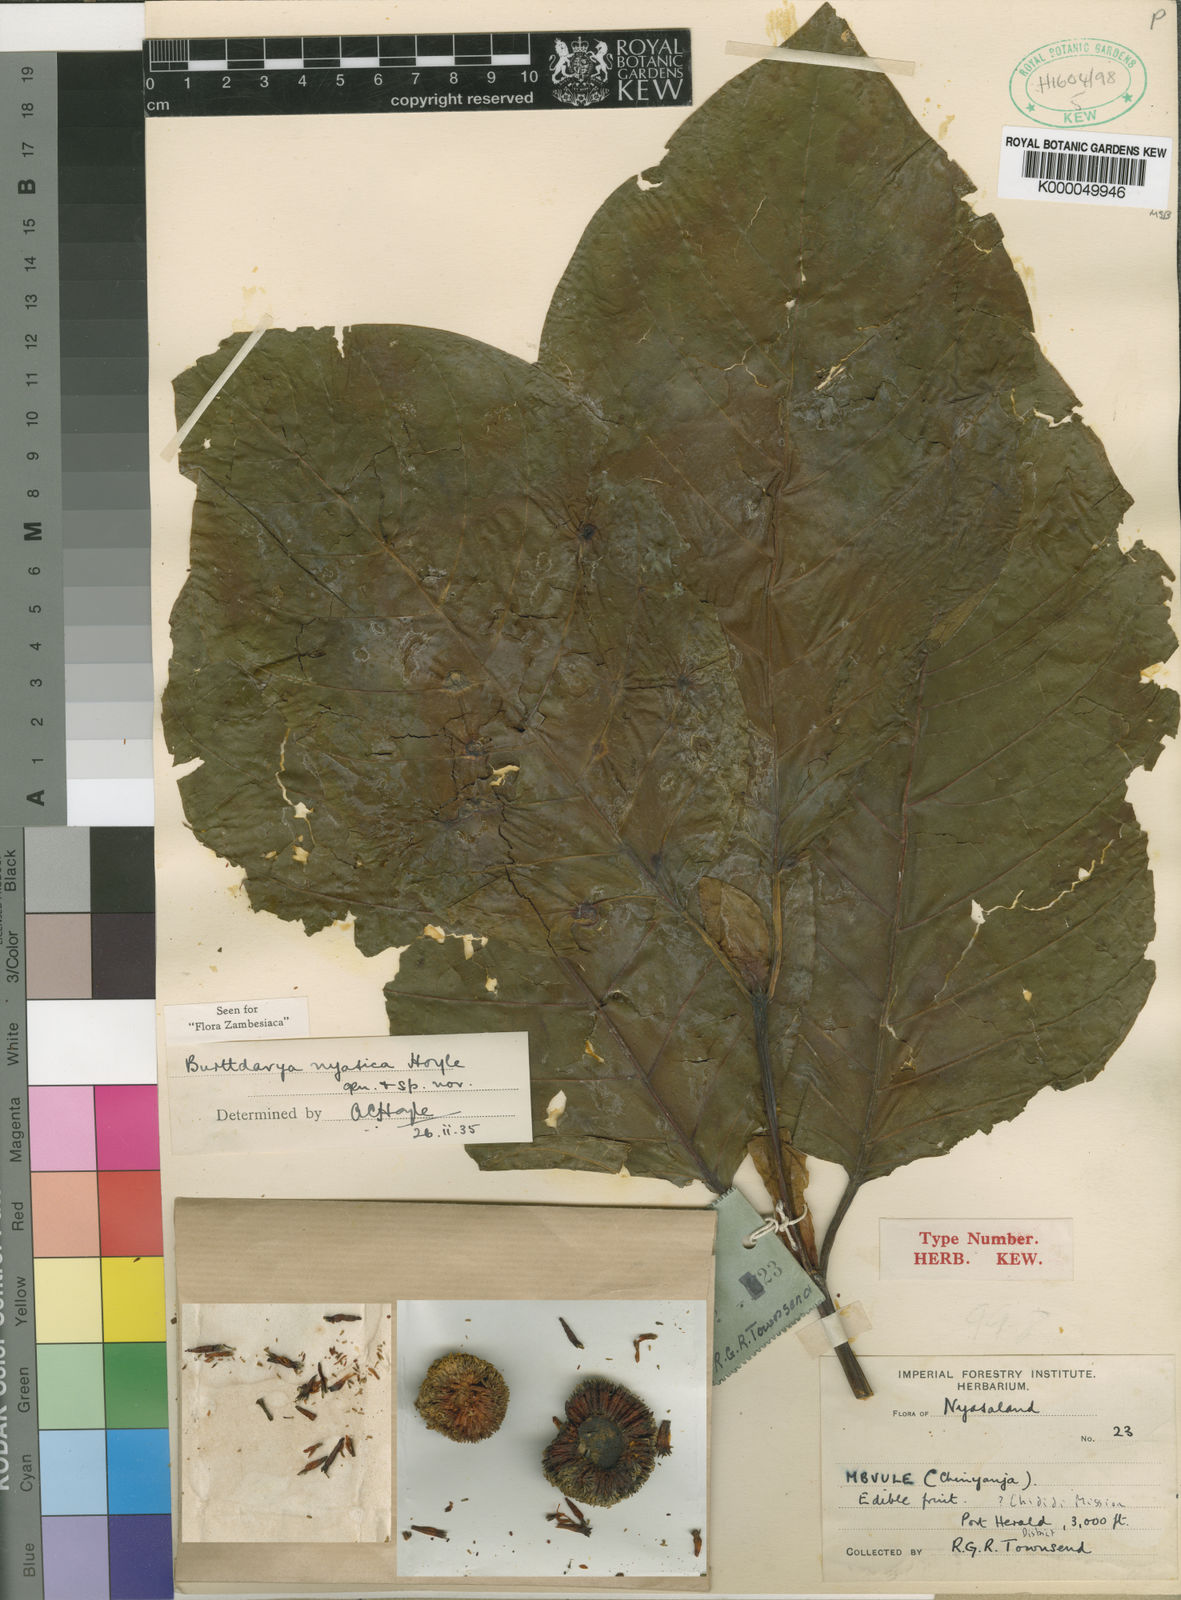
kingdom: Plantae
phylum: Tracheophyta
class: Magnoliopsida
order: Gentianales
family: Rubiaceae
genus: Nauclea
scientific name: Nauclea
